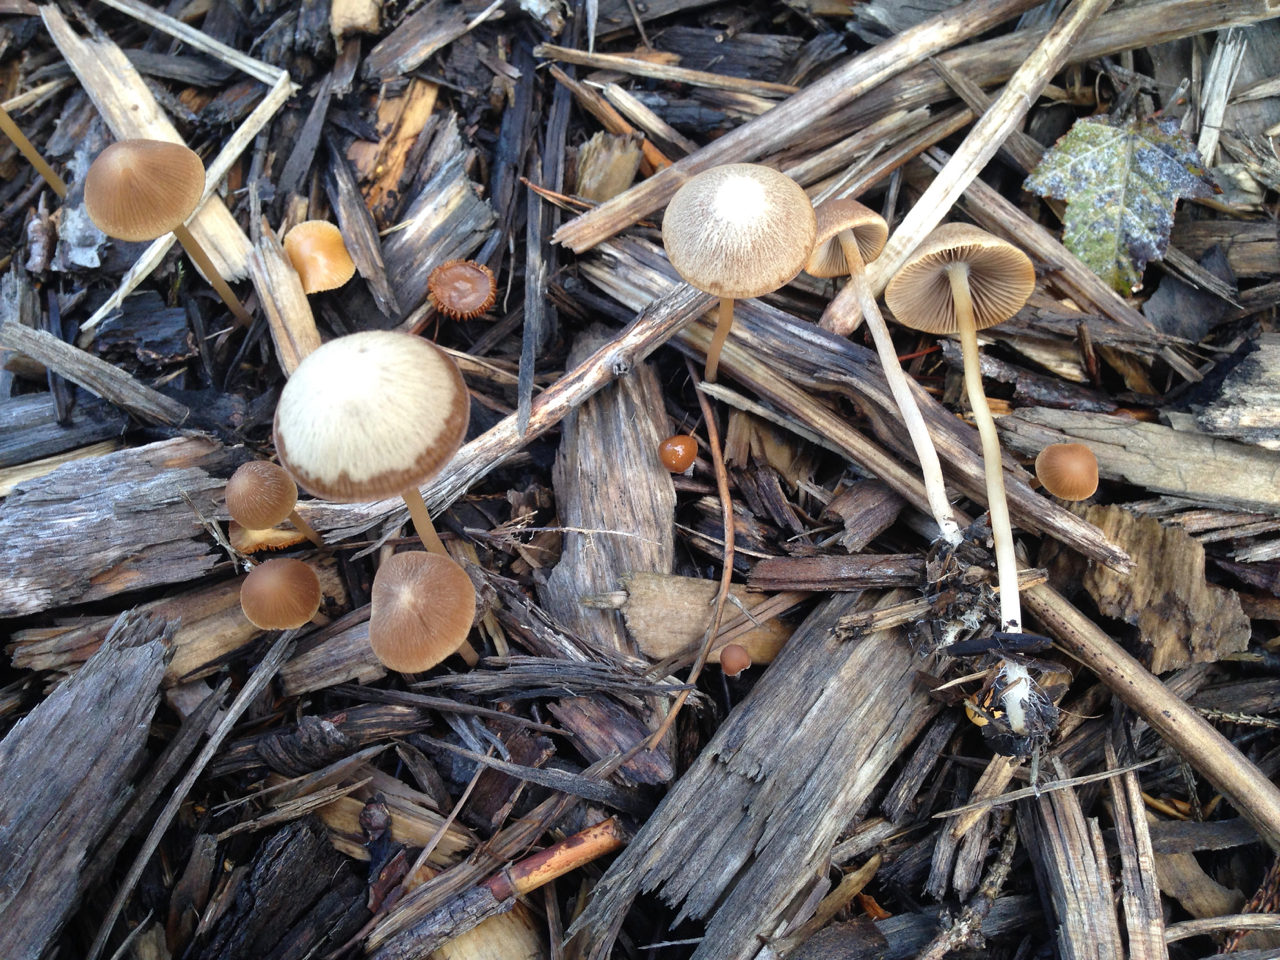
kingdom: Fungi
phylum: Basidiomycota
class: Agaricomycetes
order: Agaricales
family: Psathyrellaceae
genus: Psathyrella
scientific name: Psathyrella microrhiza
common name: Rootlet brittlestem
